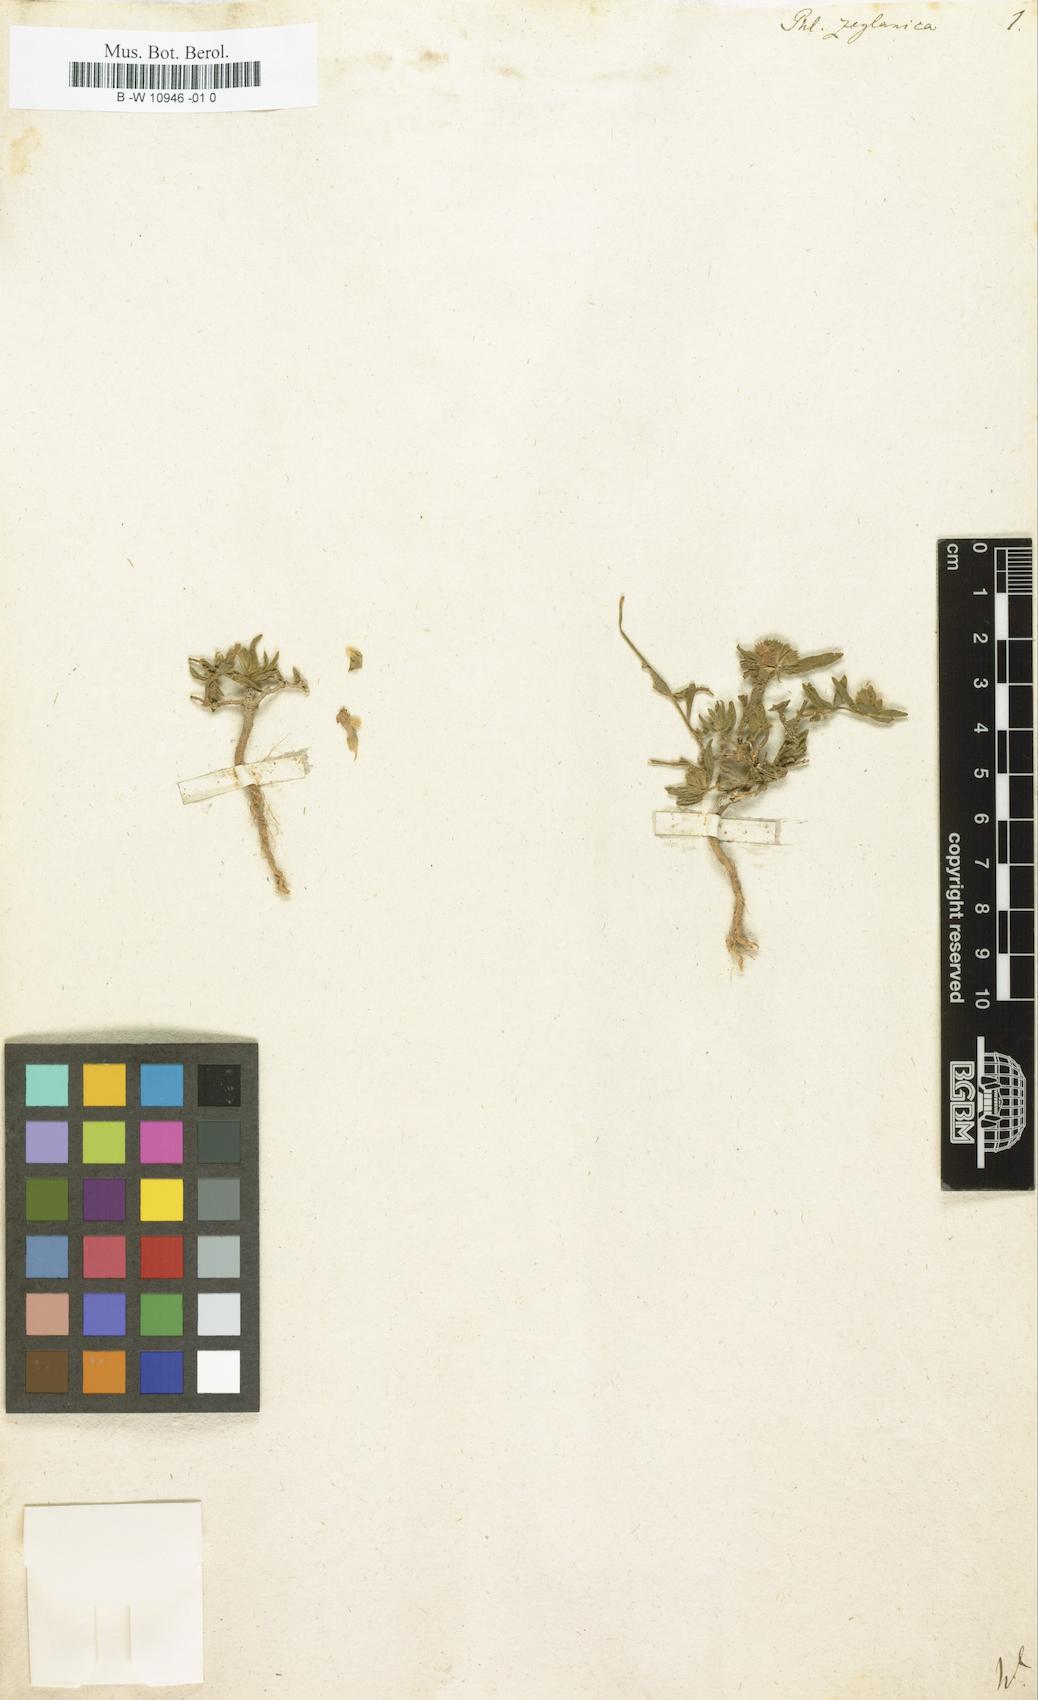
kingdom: Plantae
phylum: Tracheophyta
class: Magnoliopsida
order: Lamiales
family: Lamiaceae
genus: Phlomis
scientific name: Phlomis zeylanica
